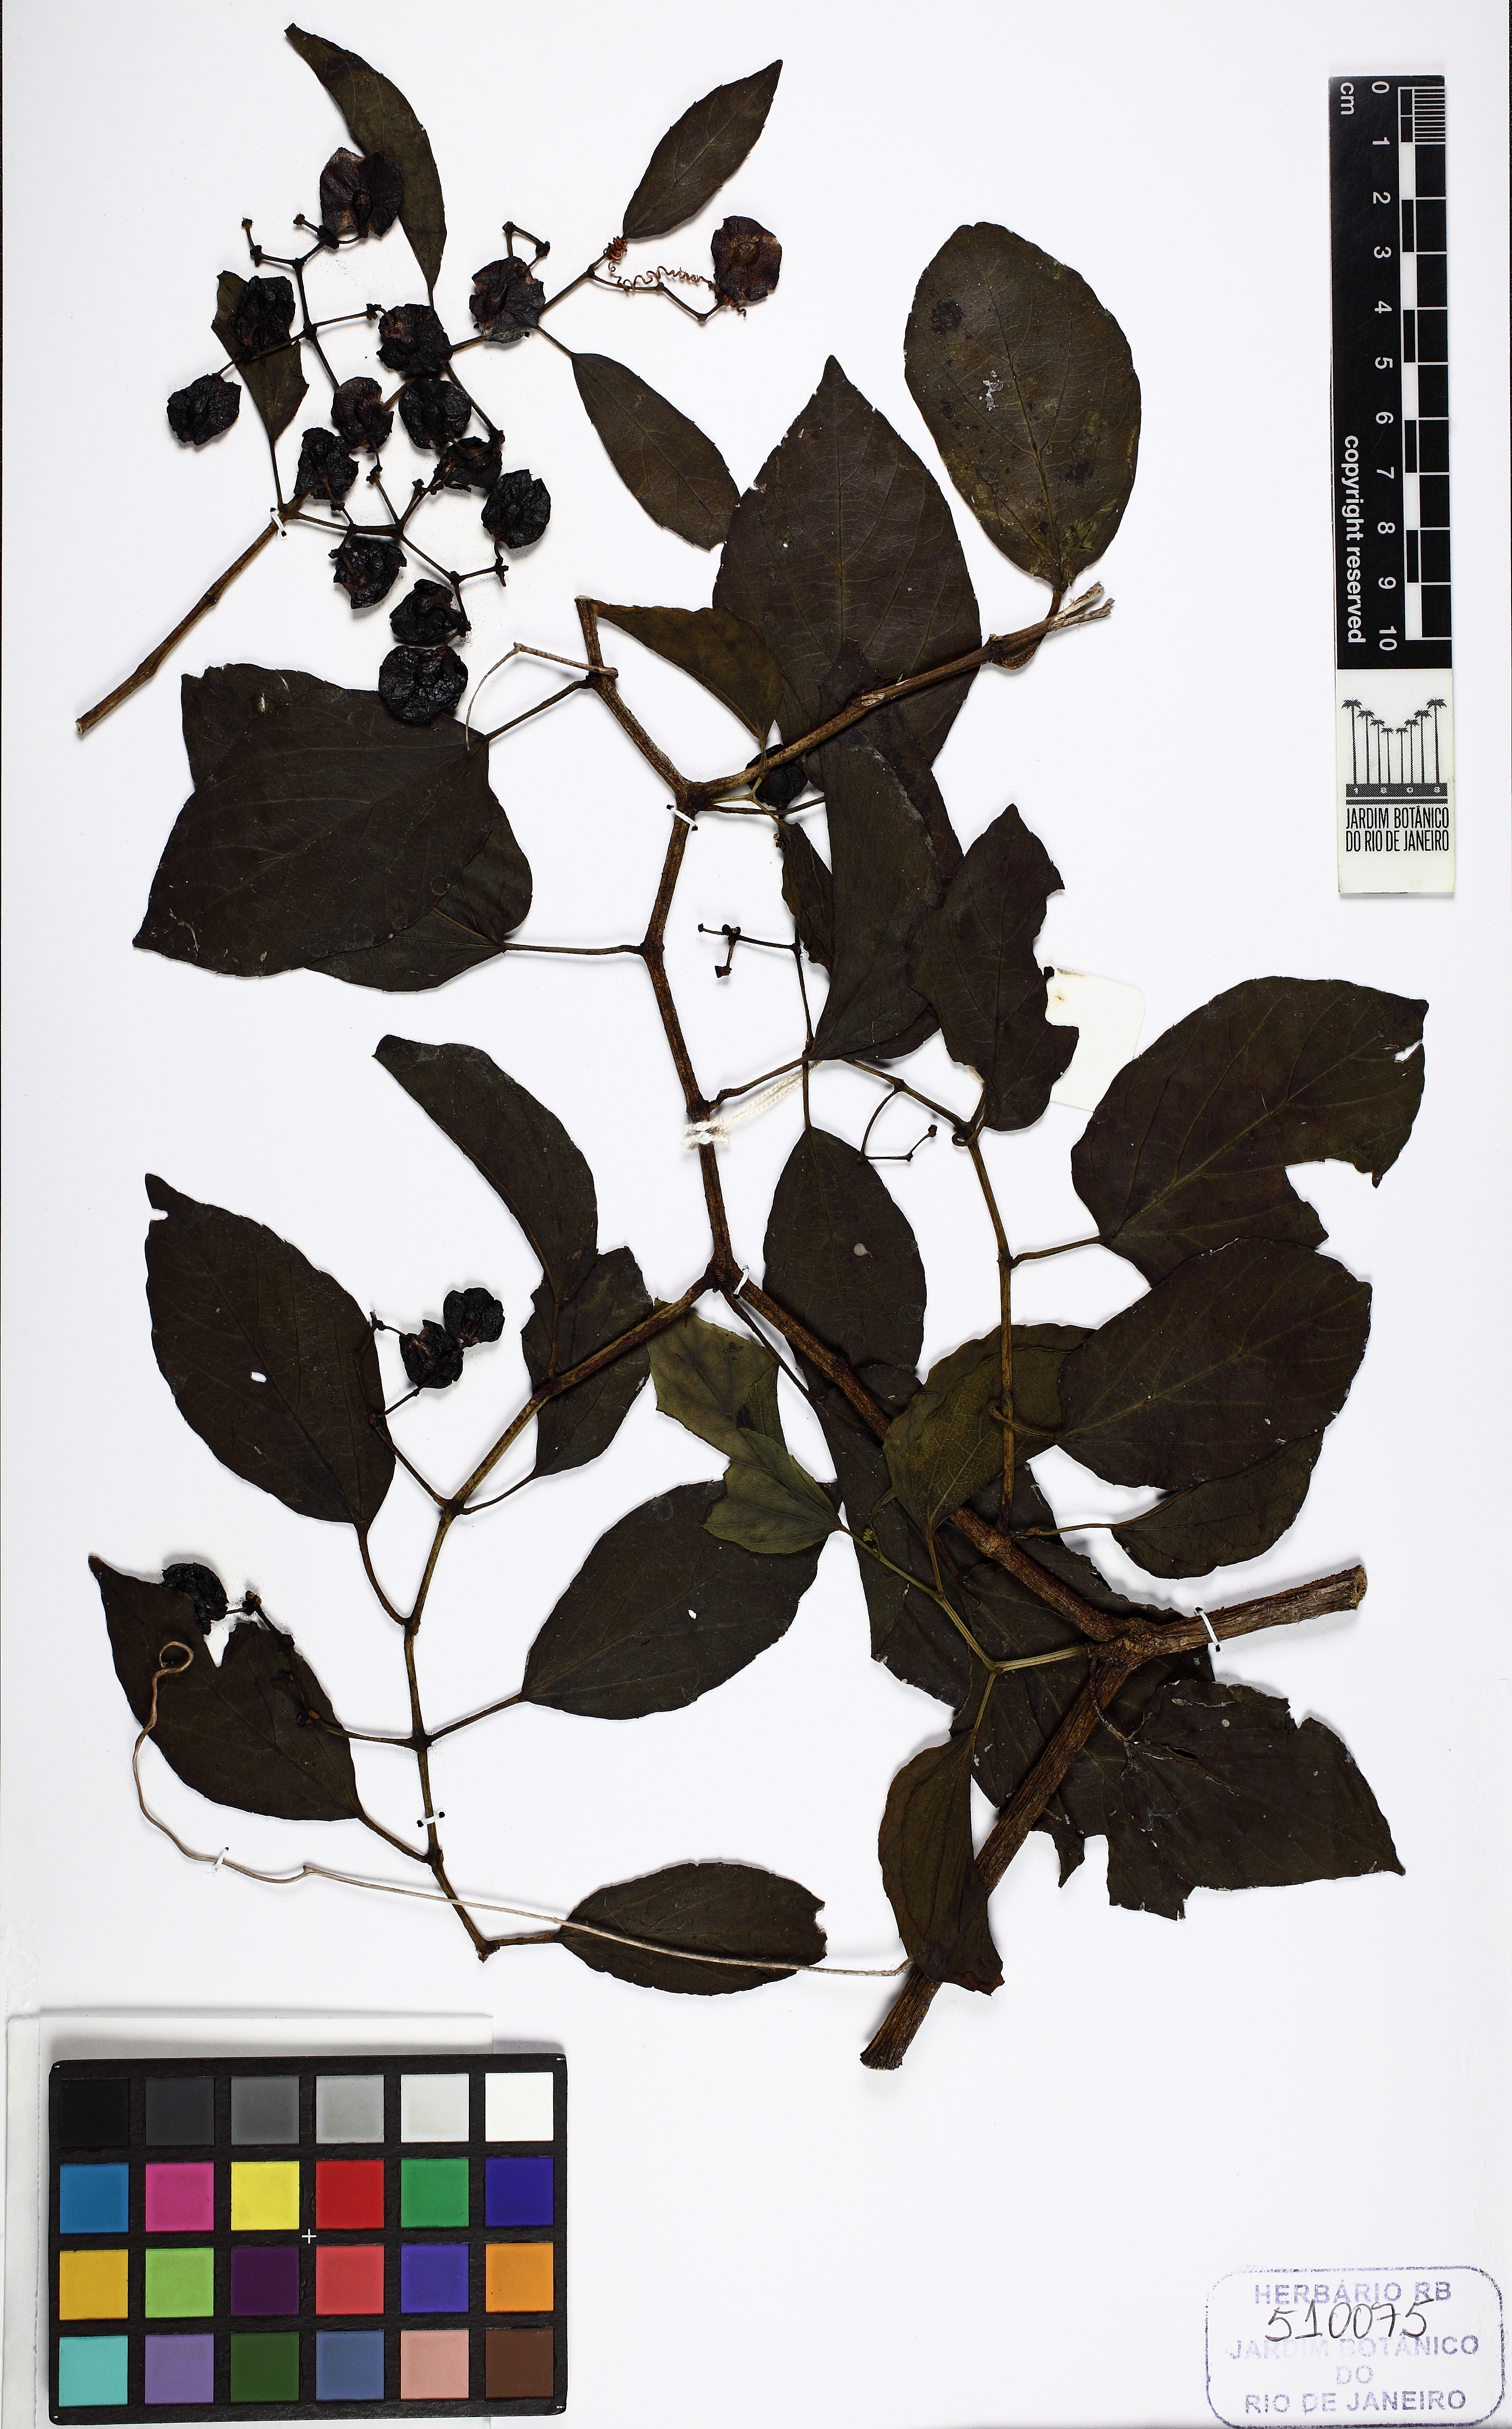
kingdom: Plantae
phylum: Tracheophyta
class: Magnoliopsida
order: Vitales
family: Vitaceae
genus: Cissus
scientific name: Cissus
